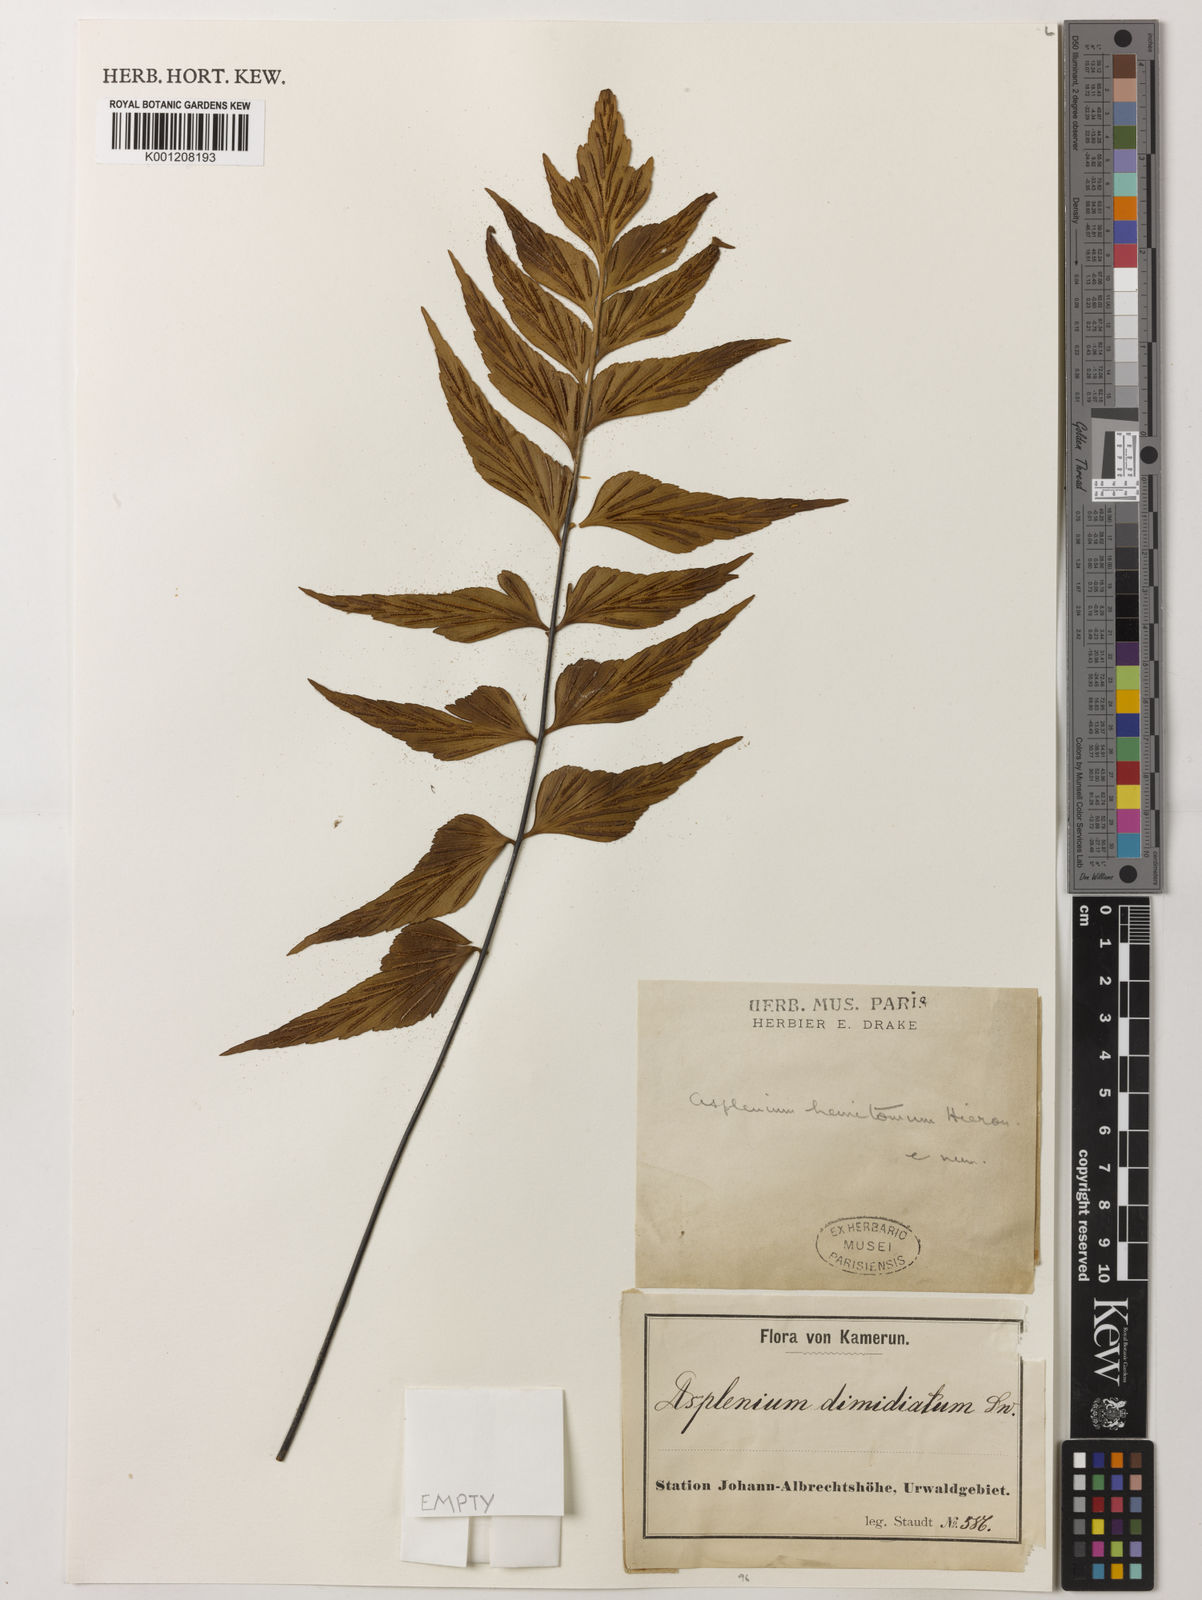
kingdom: Plantae
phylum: Tracheophyta
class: Polypodiopsida
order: Polypodiales
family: Aspleniaceae
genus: Asplenium
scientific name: Asplenium hemitomum
